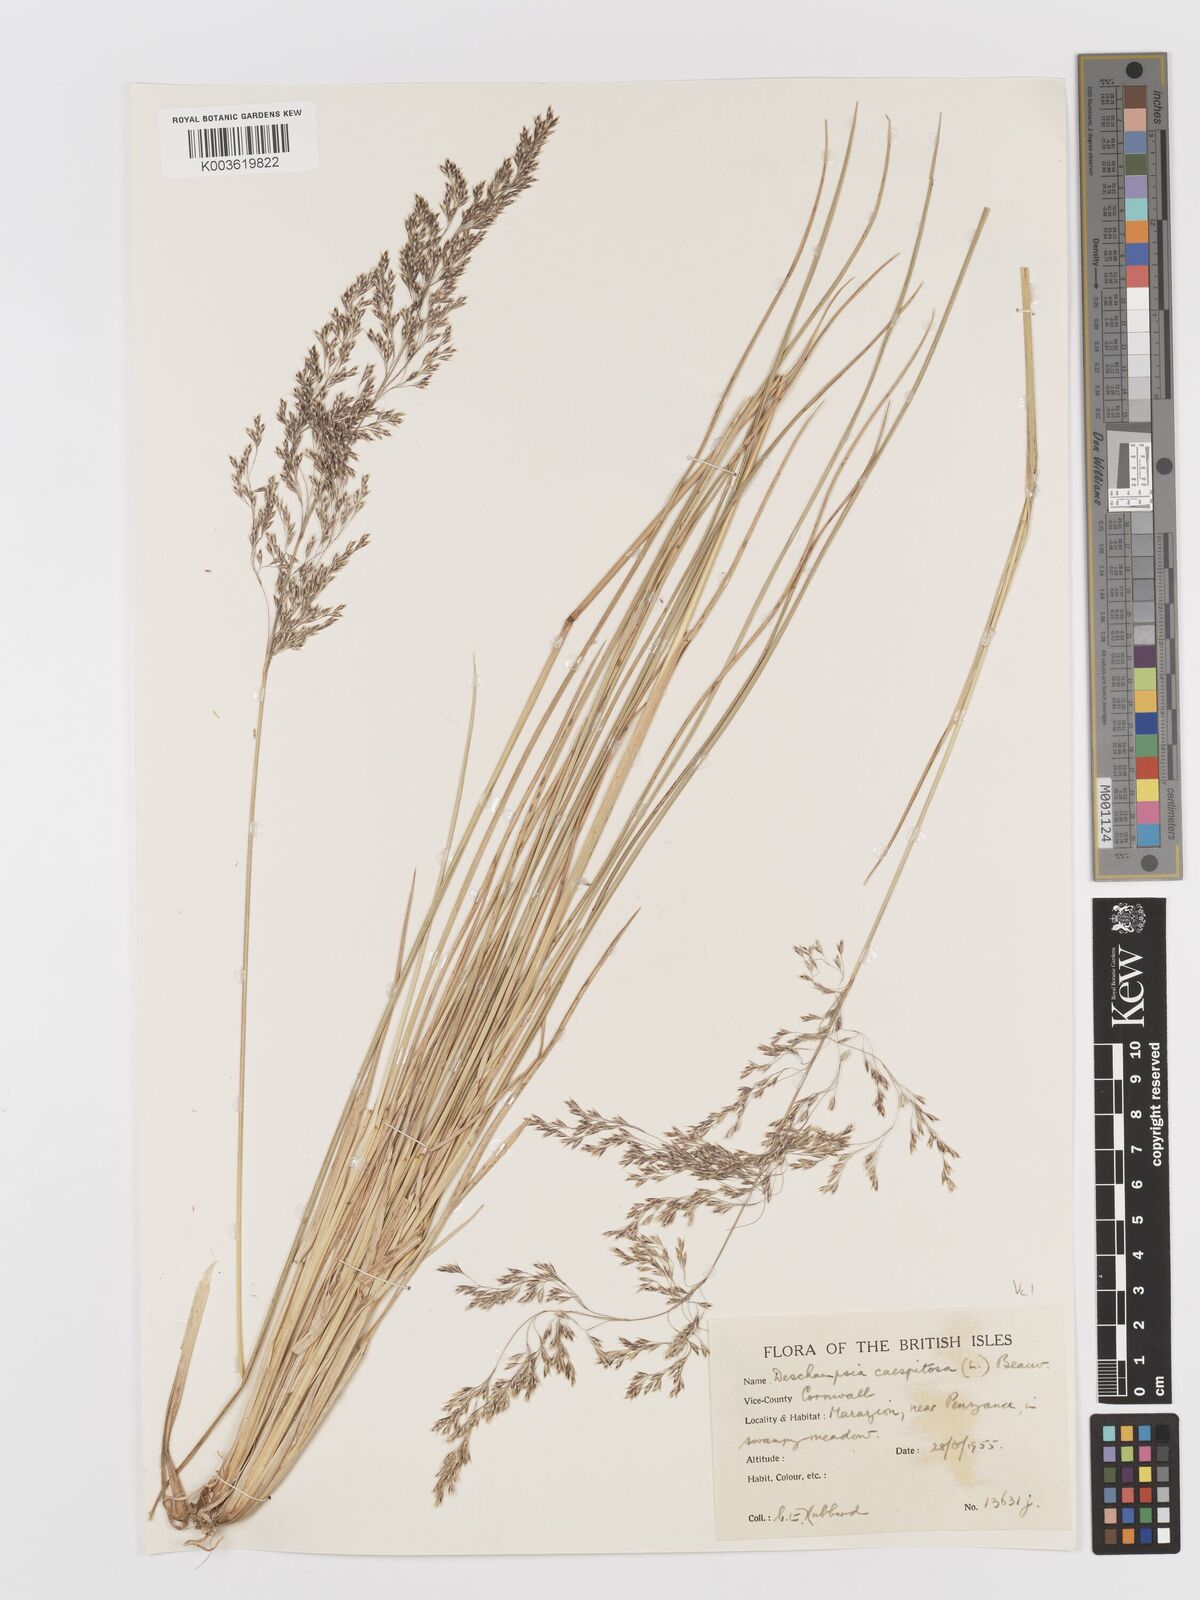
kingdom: Plantae
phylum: Tracheophyta
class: Liliopsida
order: Poales
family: Poaceae
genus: Deschampsia
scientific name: Deschampsia cespitosa
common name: Tufted hair-grass
